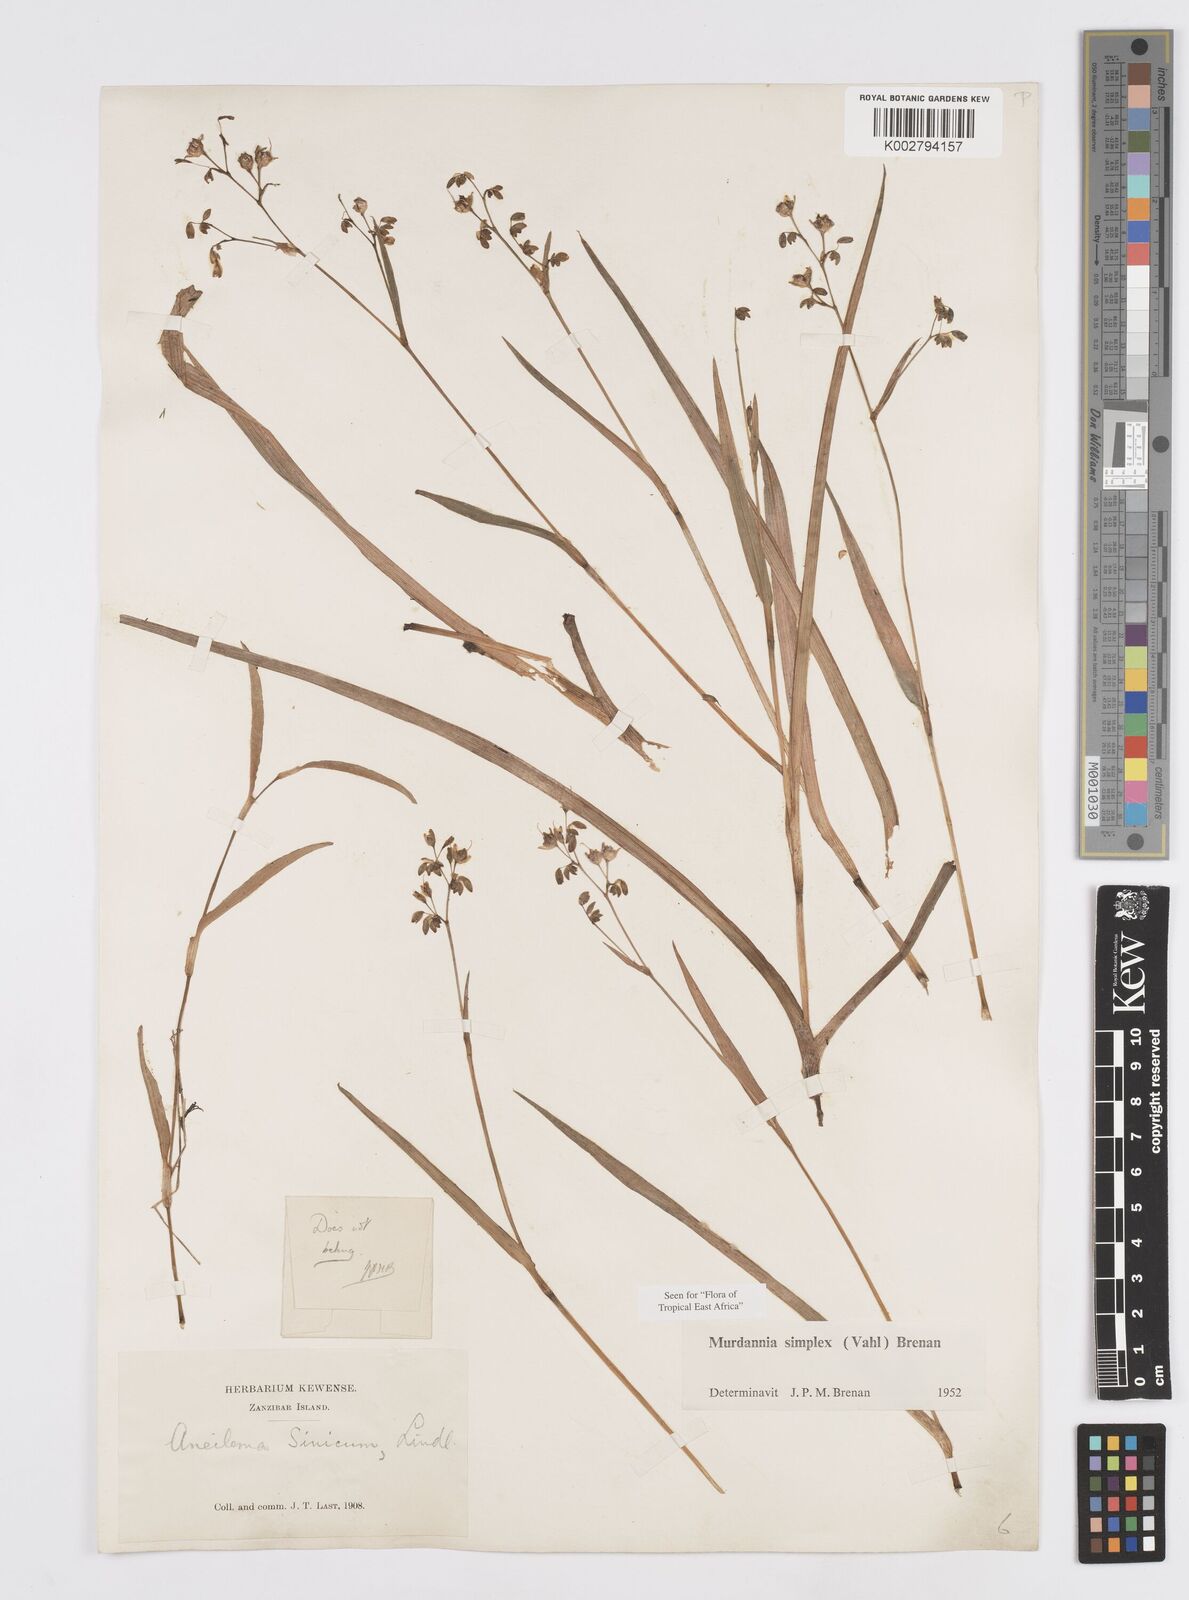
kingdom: Plantae
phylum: Tracheophyta
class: Liliopsida
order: Commelinales
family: Commelinaceae
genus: Murdannia
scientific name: Murdannia simplex
